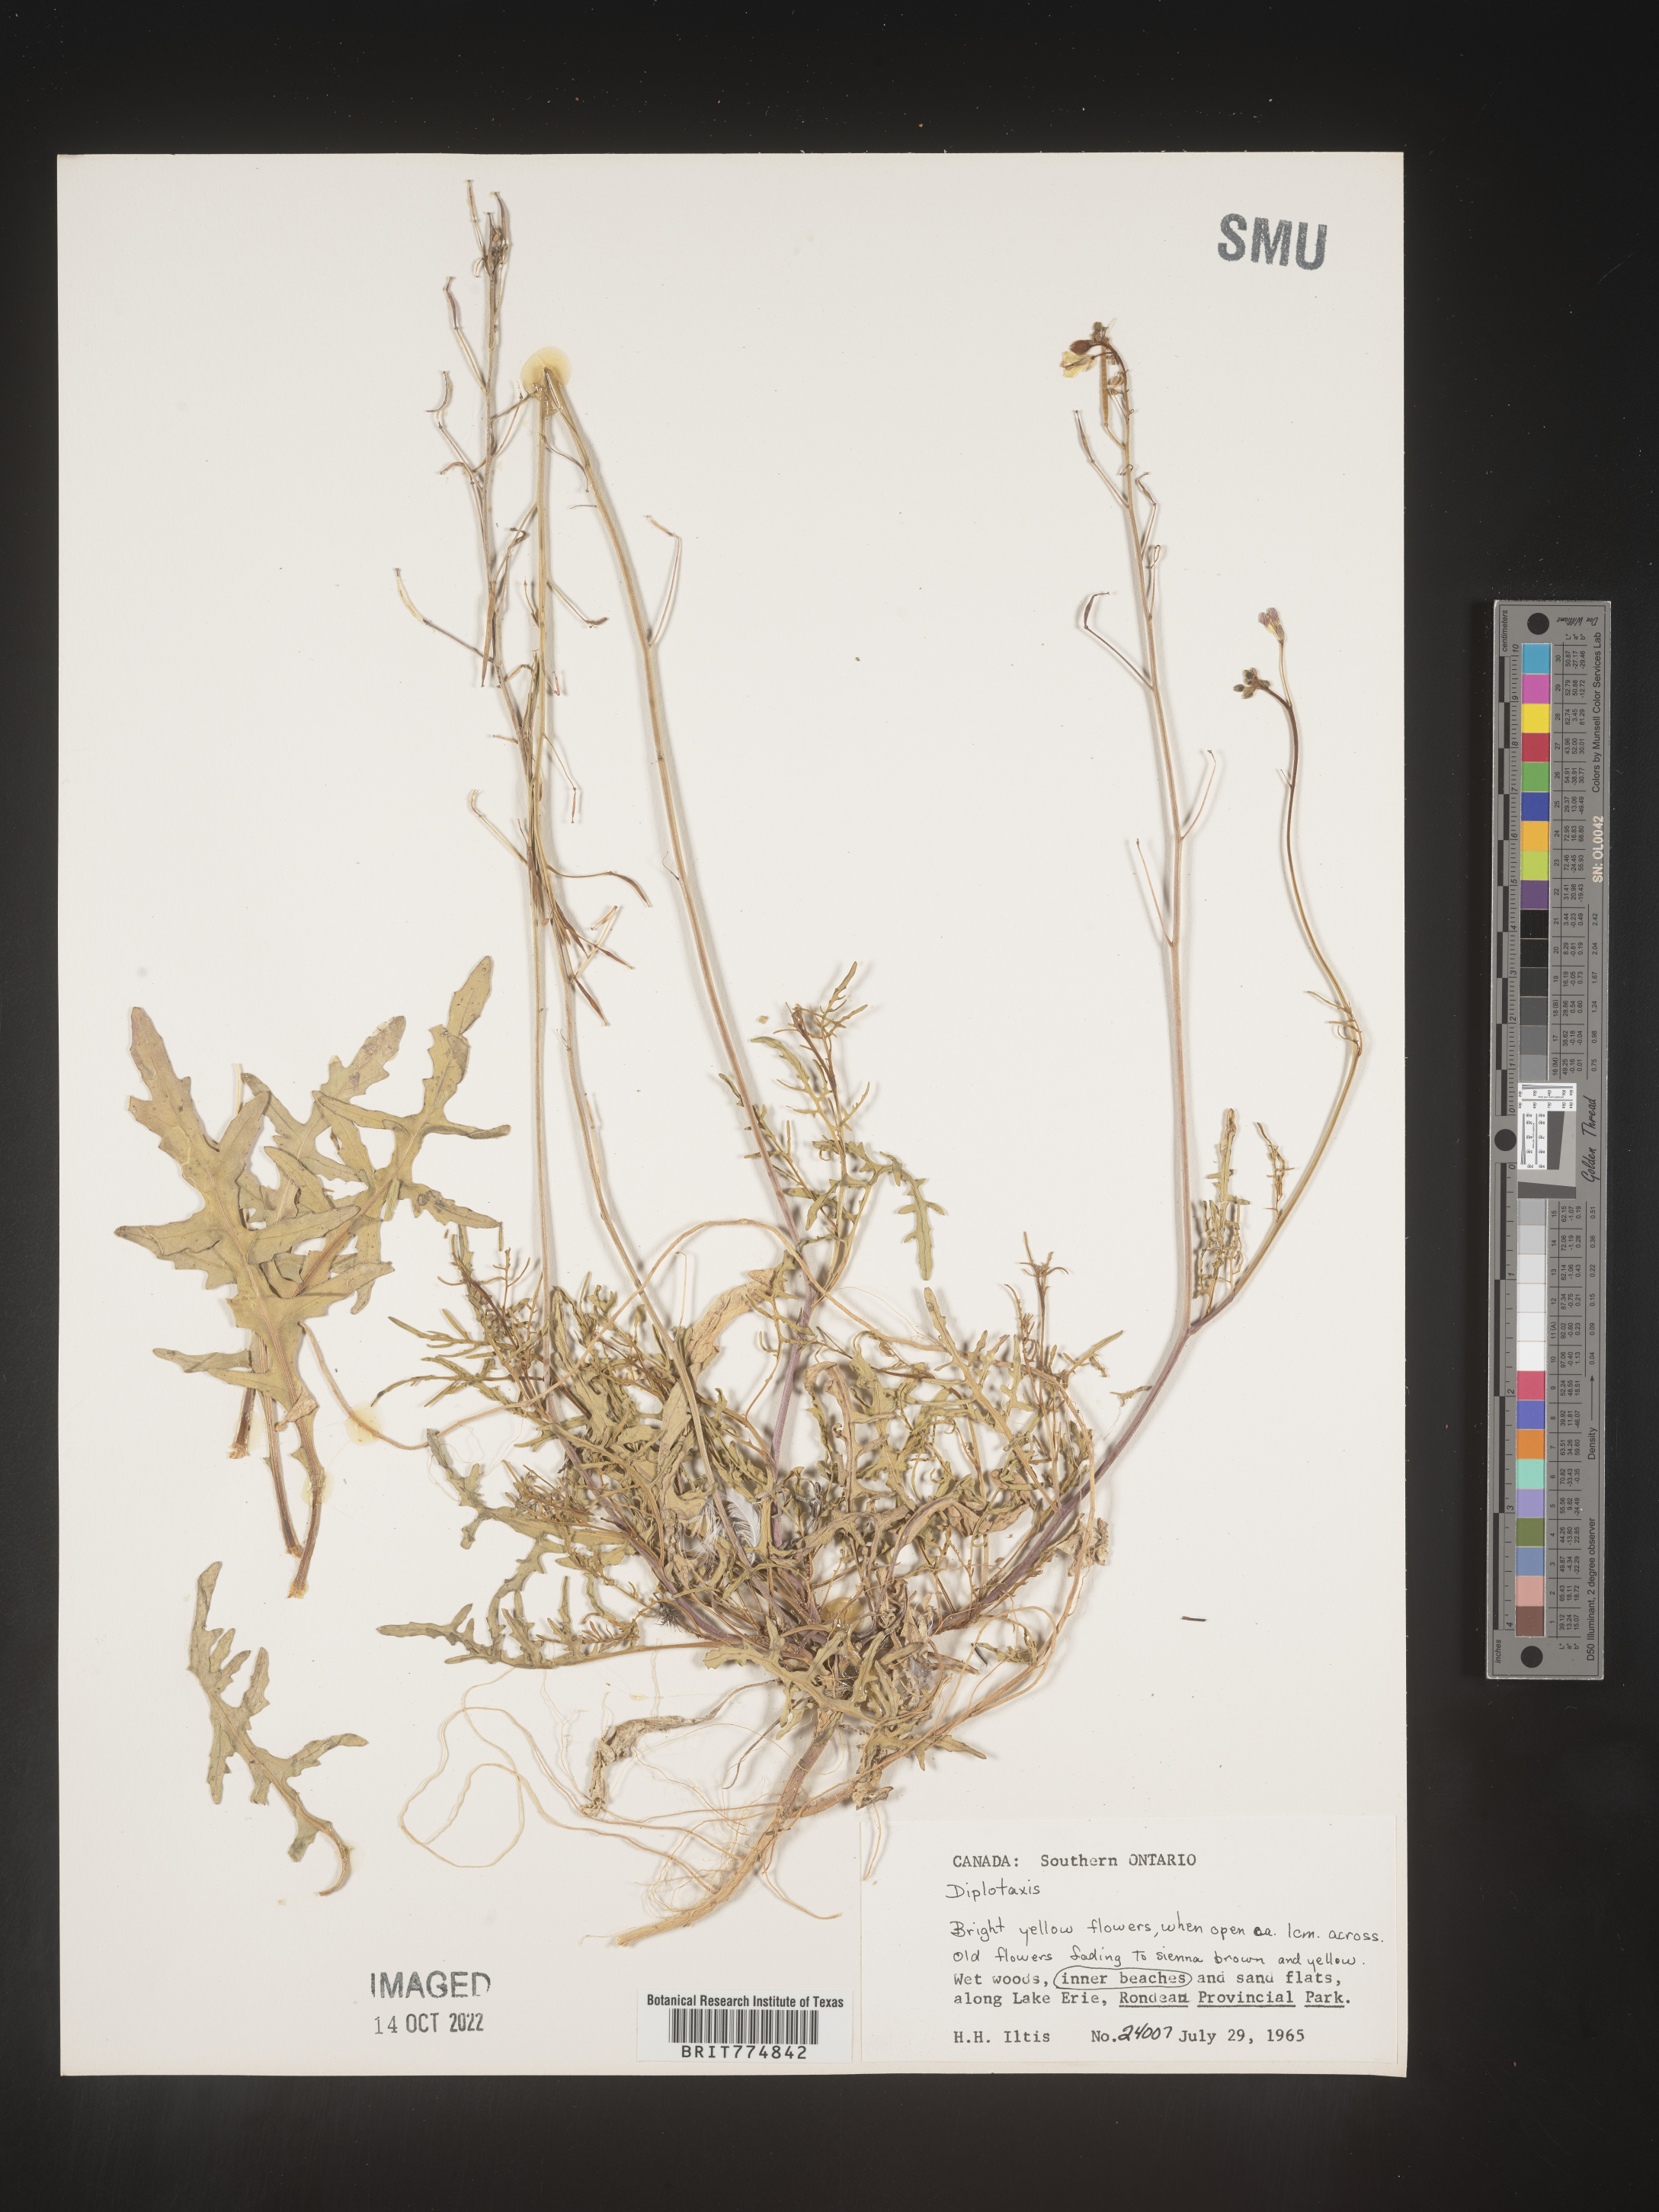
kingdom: Plantae
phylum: Tracheophyta
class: Magnoliopsida
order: Brassicales
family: Brassicaceae
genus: Diplotaxis
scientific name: Diplotaxis
